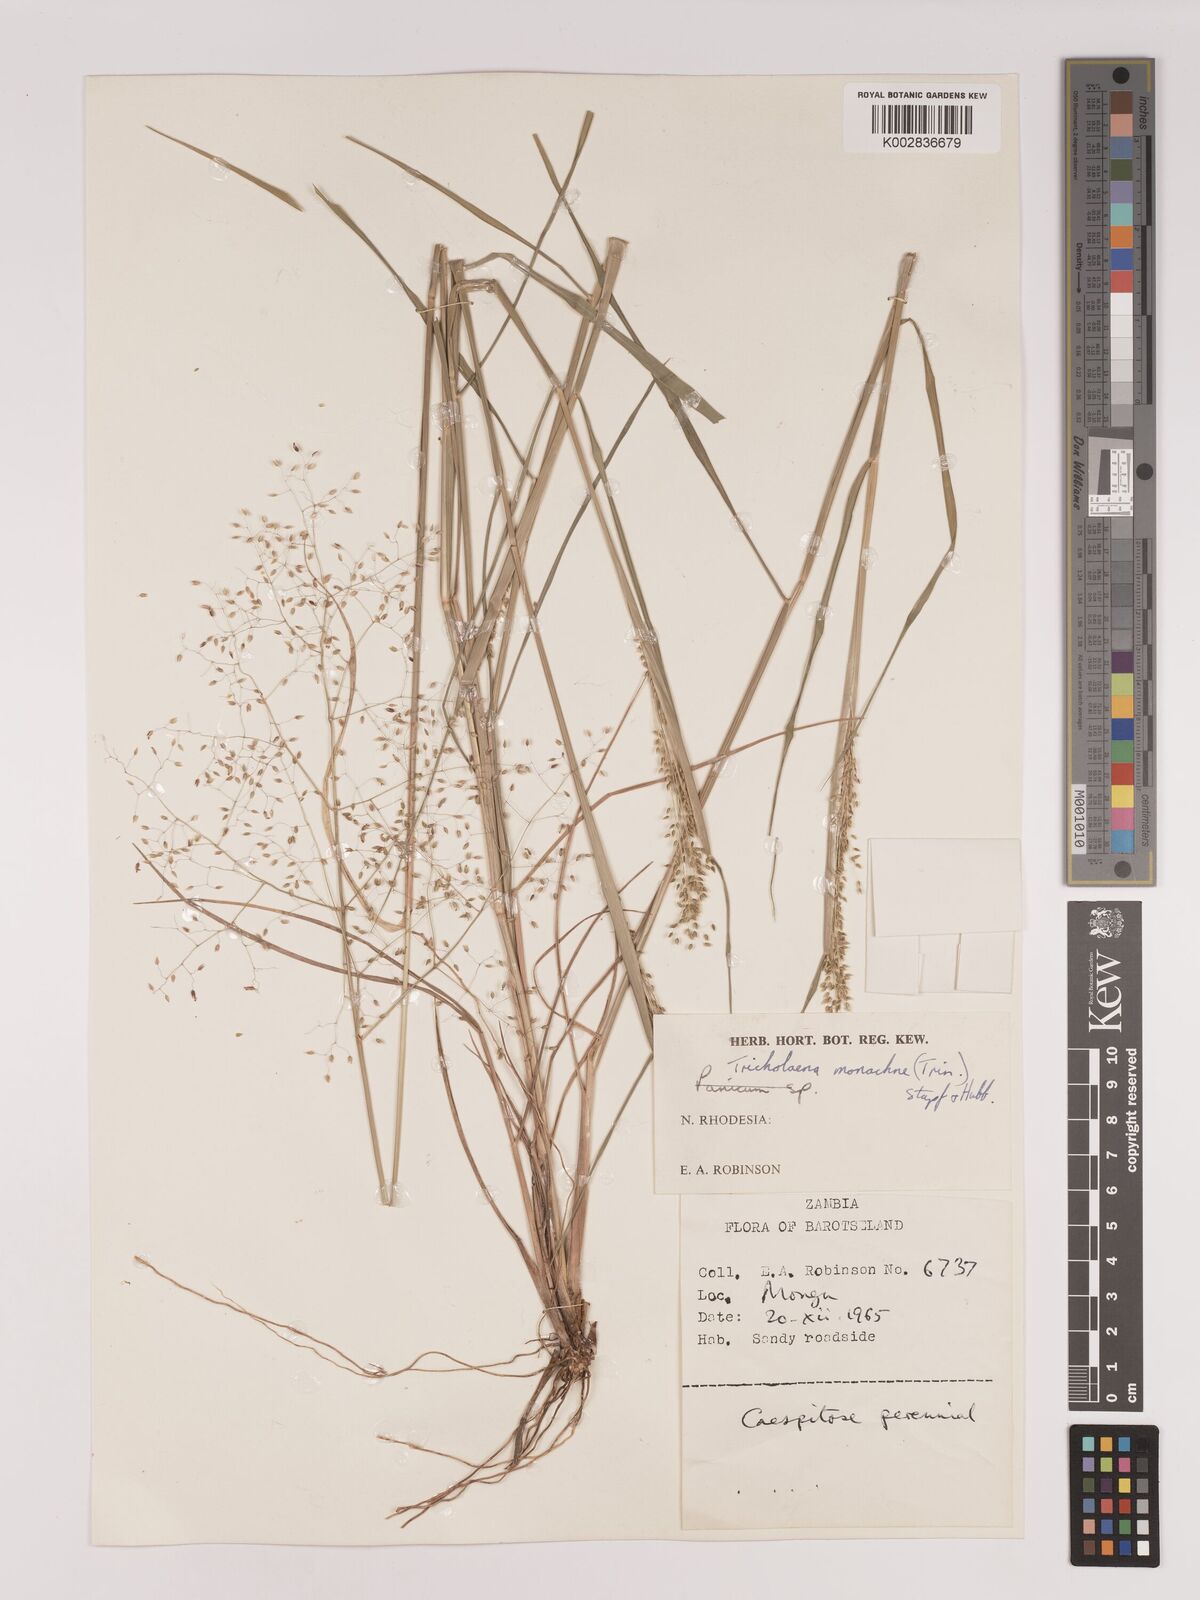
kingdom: Plantae
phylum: Tracheophyta
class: Liliopsida
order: Poales
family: Poaceae
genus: Tricholaena
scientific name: Tricholaena monachne
